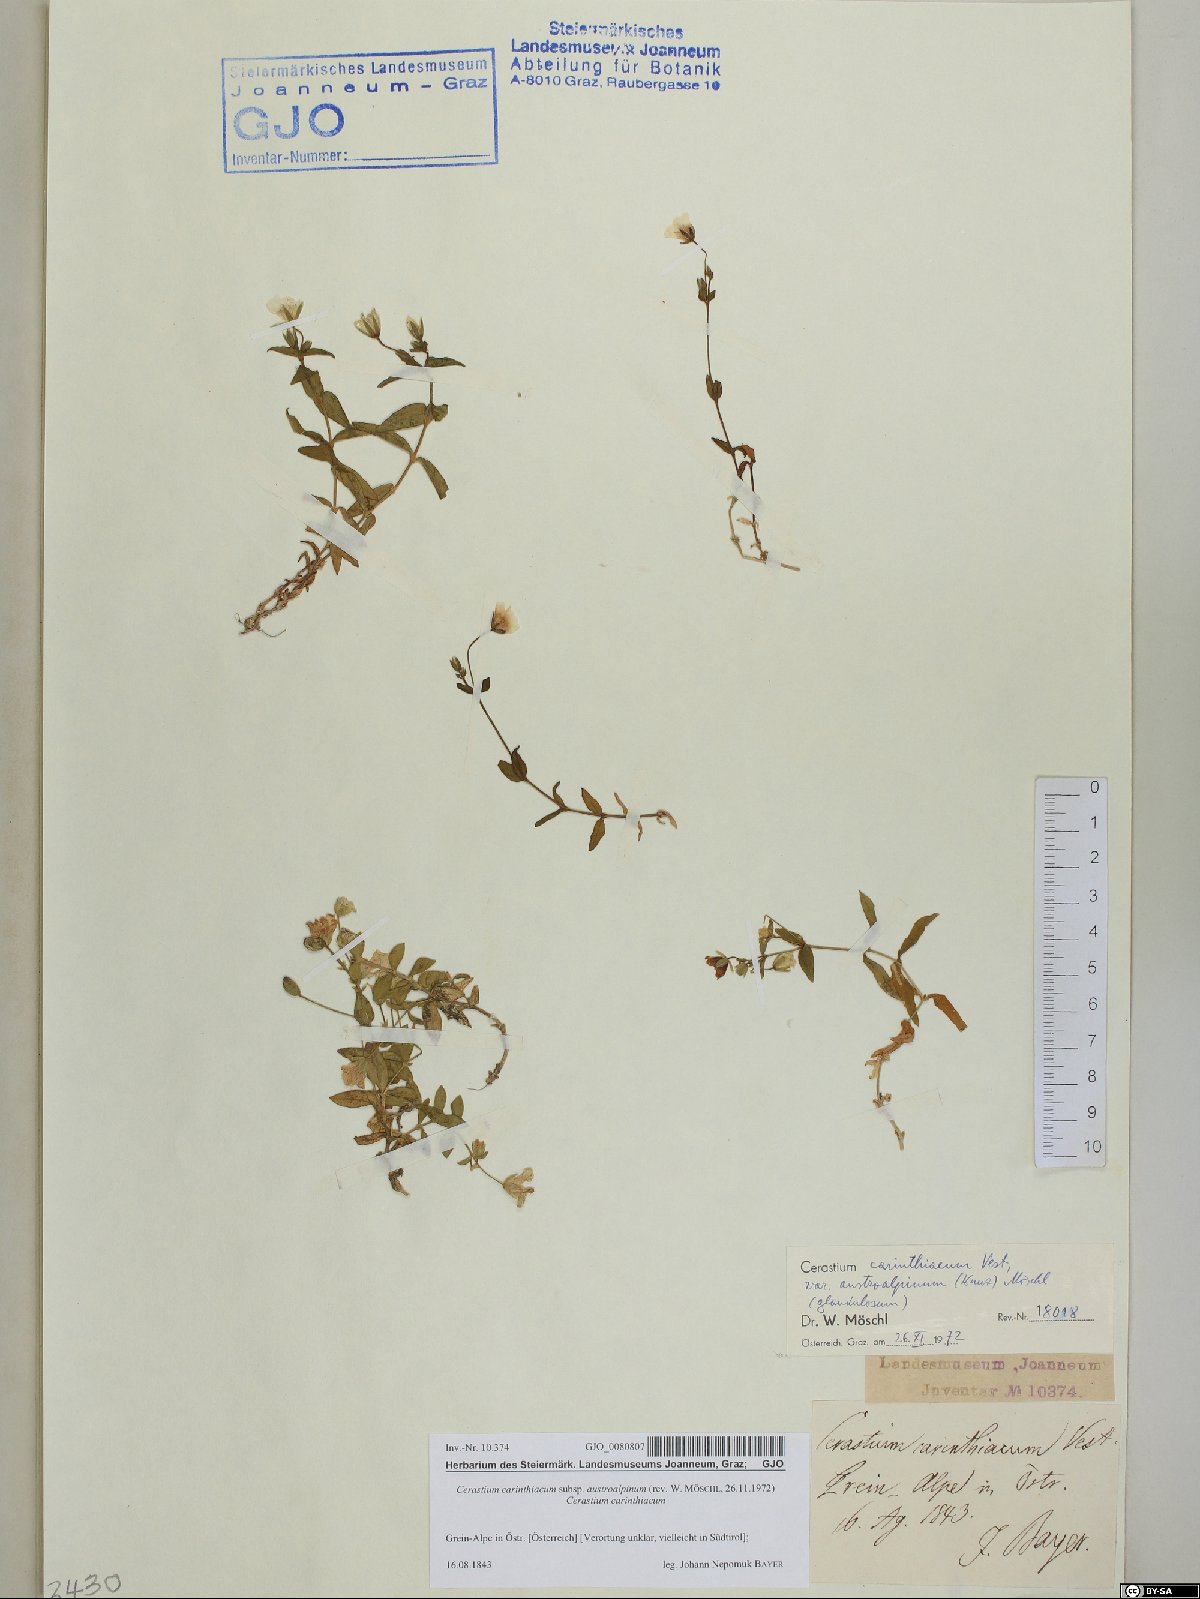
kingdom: Plantae
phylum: Tracheophyta
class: Magnoliopsida
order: Caryophyllales
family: Caryophyllaceae
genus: Cerastium
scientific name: Cerastium carinthiacum
